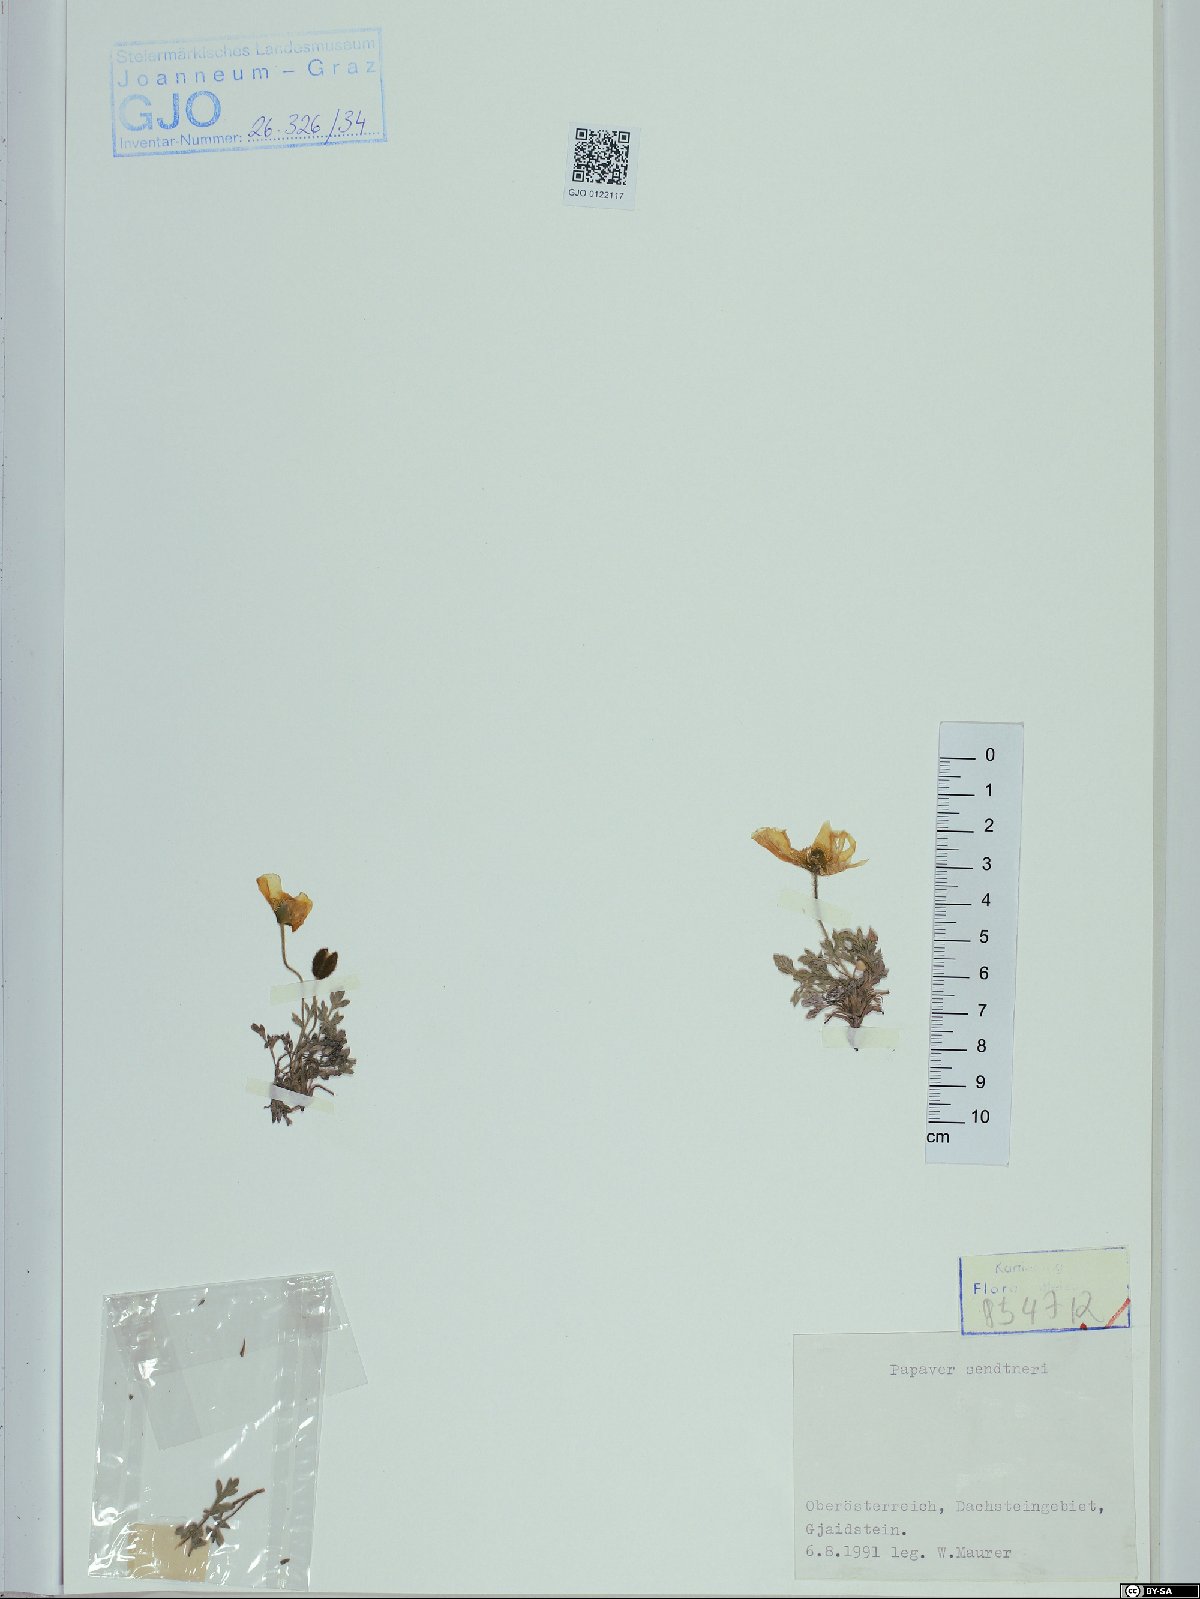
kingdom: Plantae
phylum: Tracheophyta
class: Magnoliopsida
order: Ranunculales
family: Papaveraceae
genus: Papaver
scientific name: Papaver alpinum
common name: Austrian poppy
